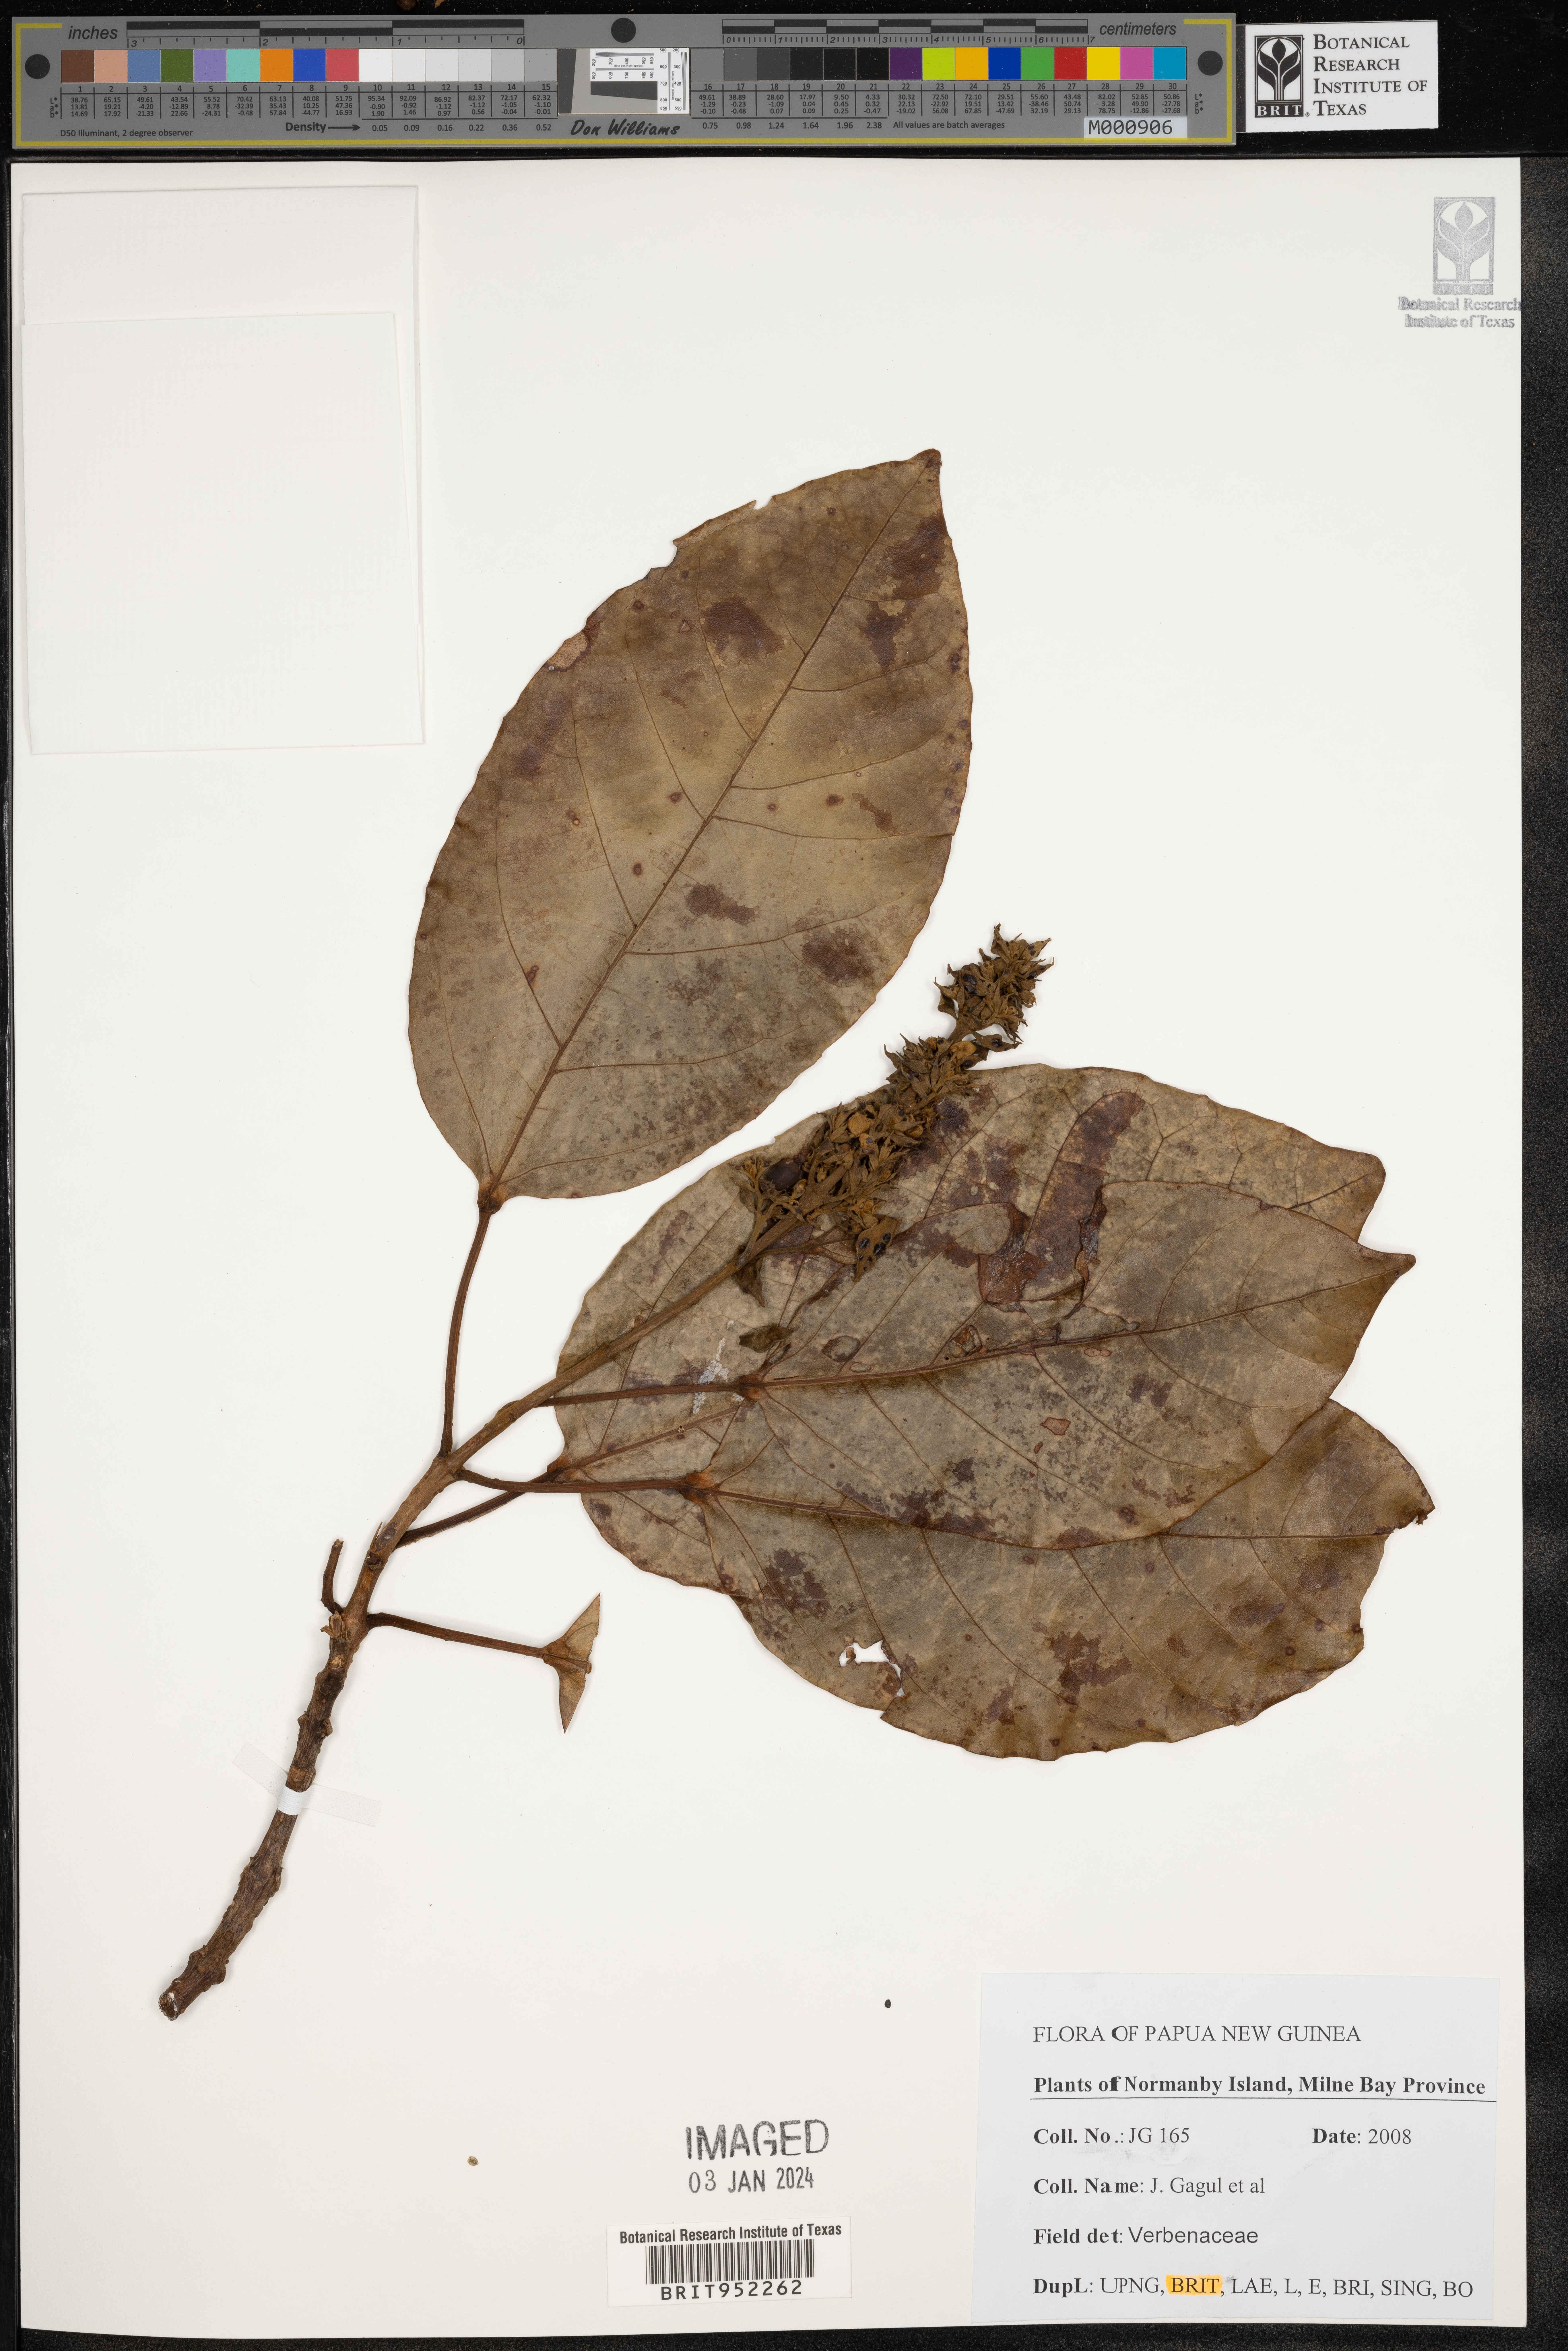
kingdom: Plantae
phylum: Tracheophyta
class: Magnoliopsida
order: Lamiales
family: Verbenaceae
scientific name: Verbenaceae
